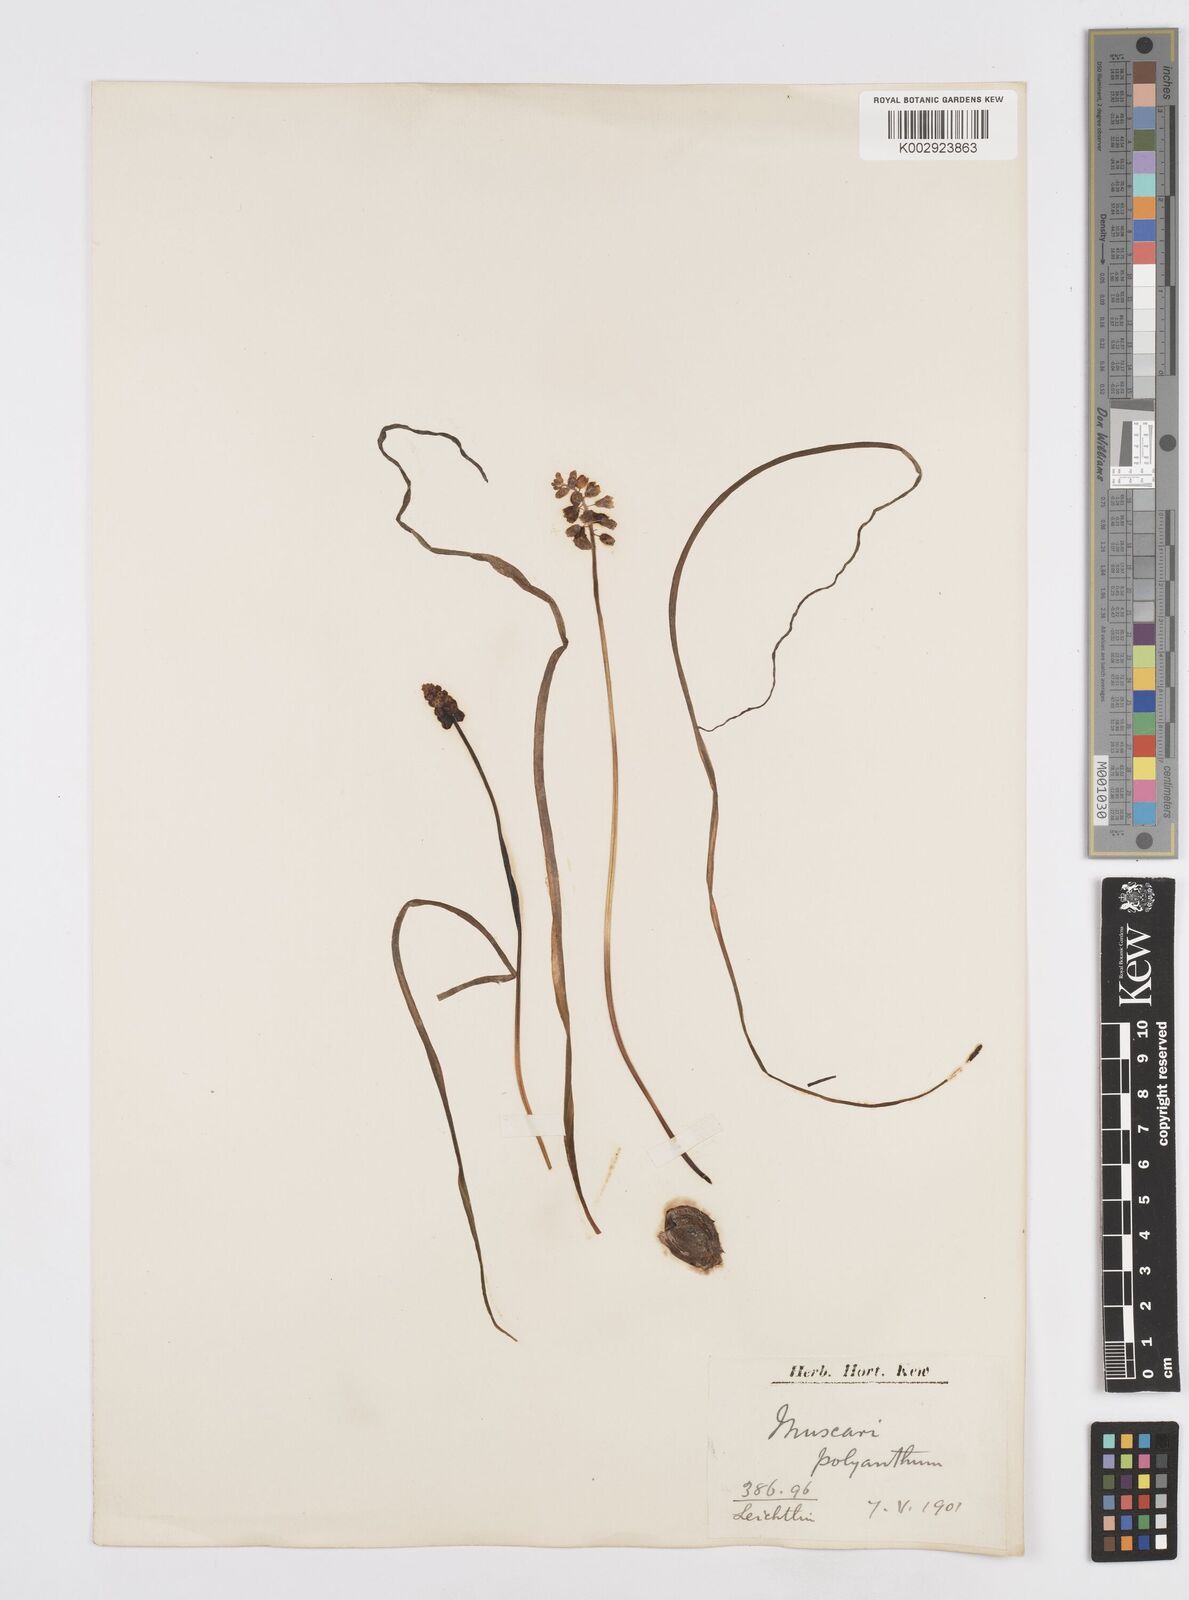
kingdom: Plantae
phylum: Tracheophyta
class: Liliopsida
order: Asparagales
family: Asparagaceae
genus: Muscari
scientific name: Muscari
